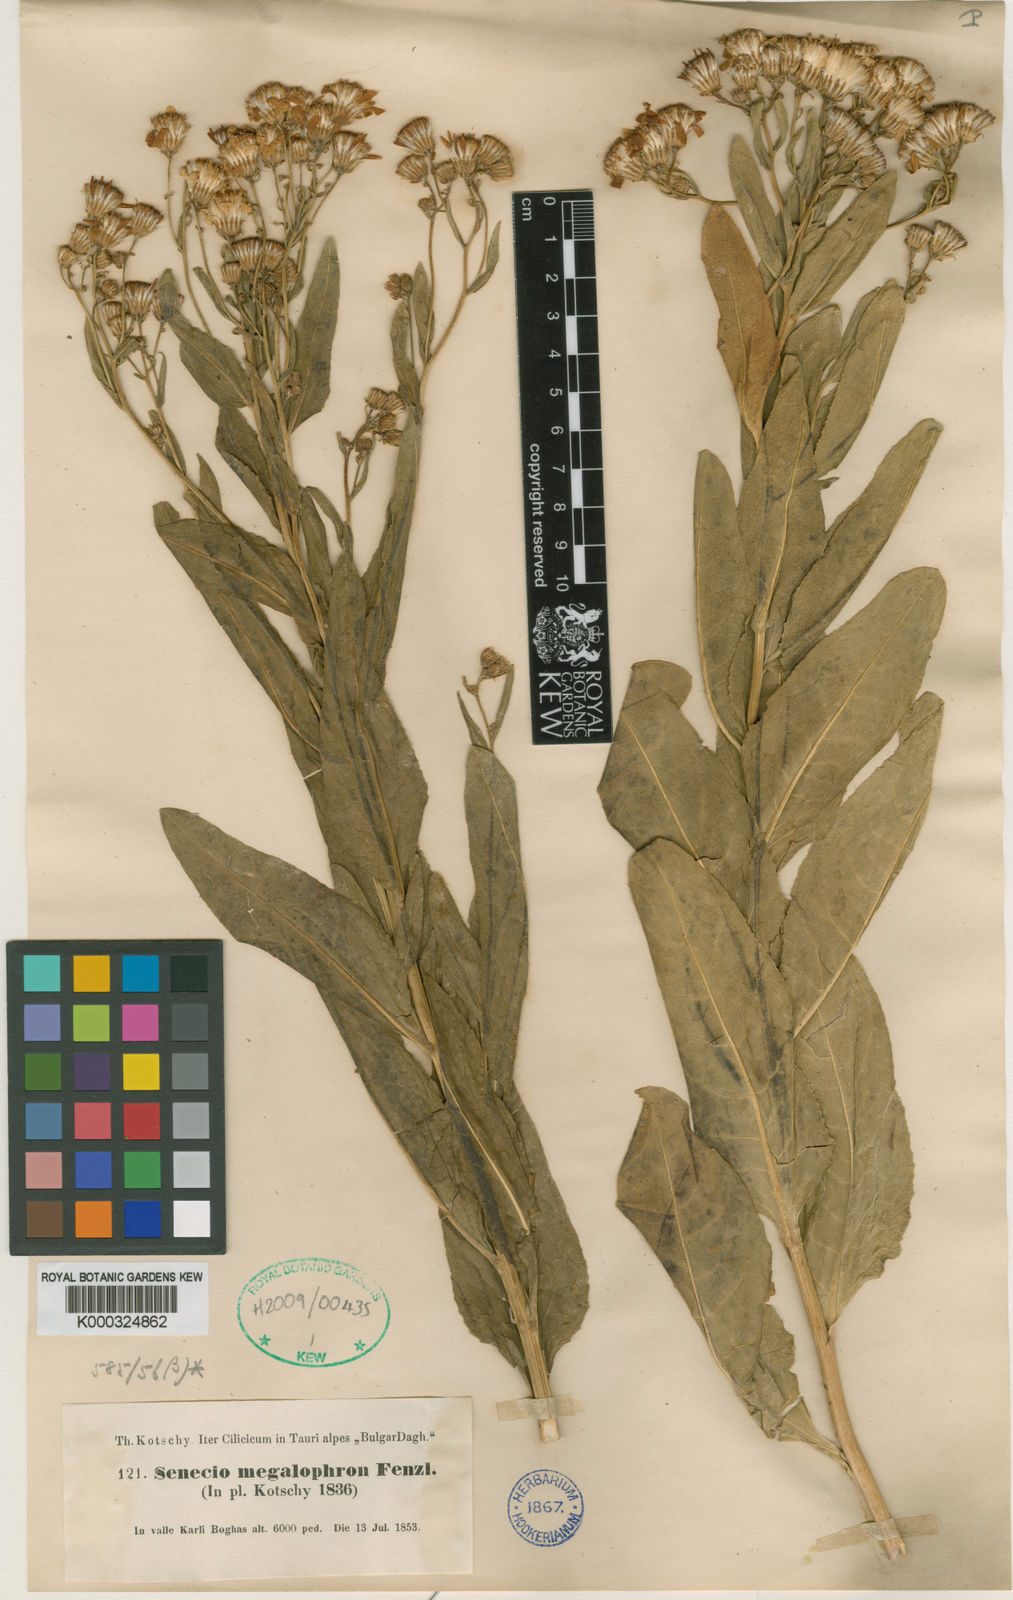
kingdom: Plantae
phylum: Tracheophyta
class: Magnoliopsida
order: Asterales
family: Asteraceae
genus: Senecio
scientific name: Senecio doriiformis
